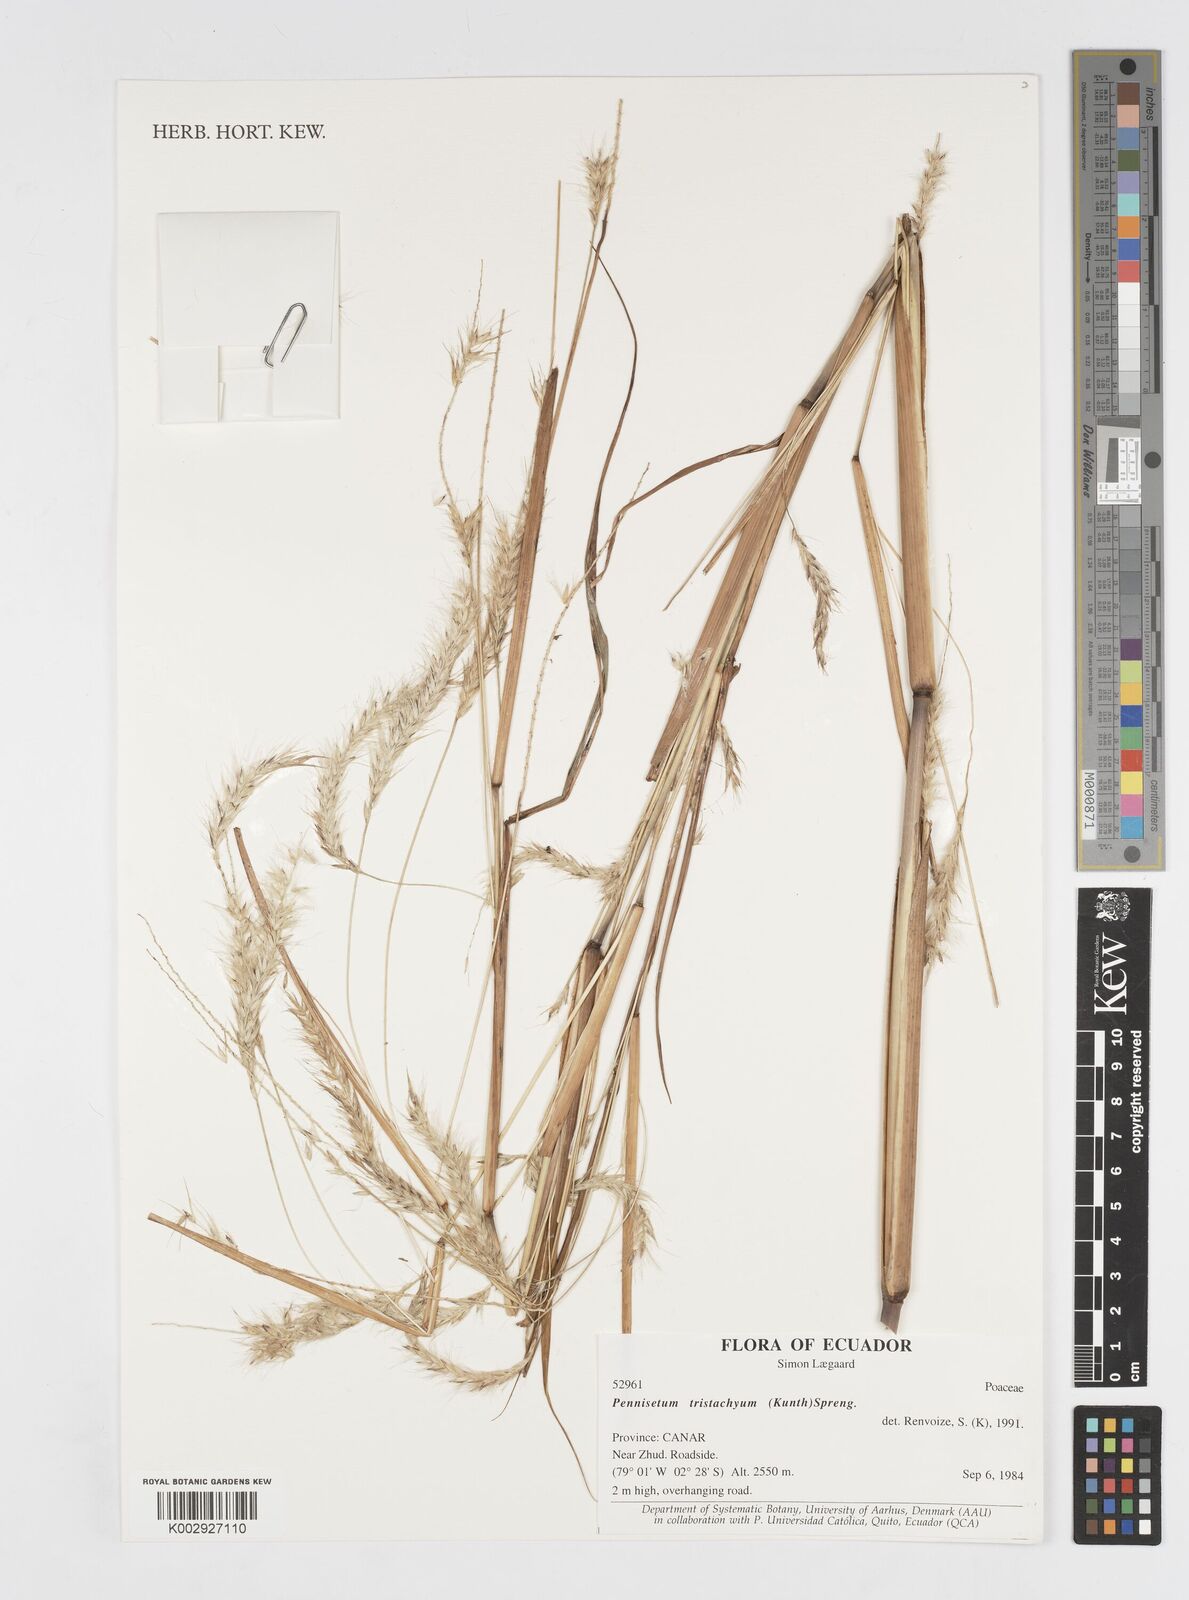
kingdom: Plantae
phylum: Tracheophyta
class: Liliopsida
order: Poales
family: Poaceae
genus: Cenchrus
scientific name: Cenchrus tristachyus
